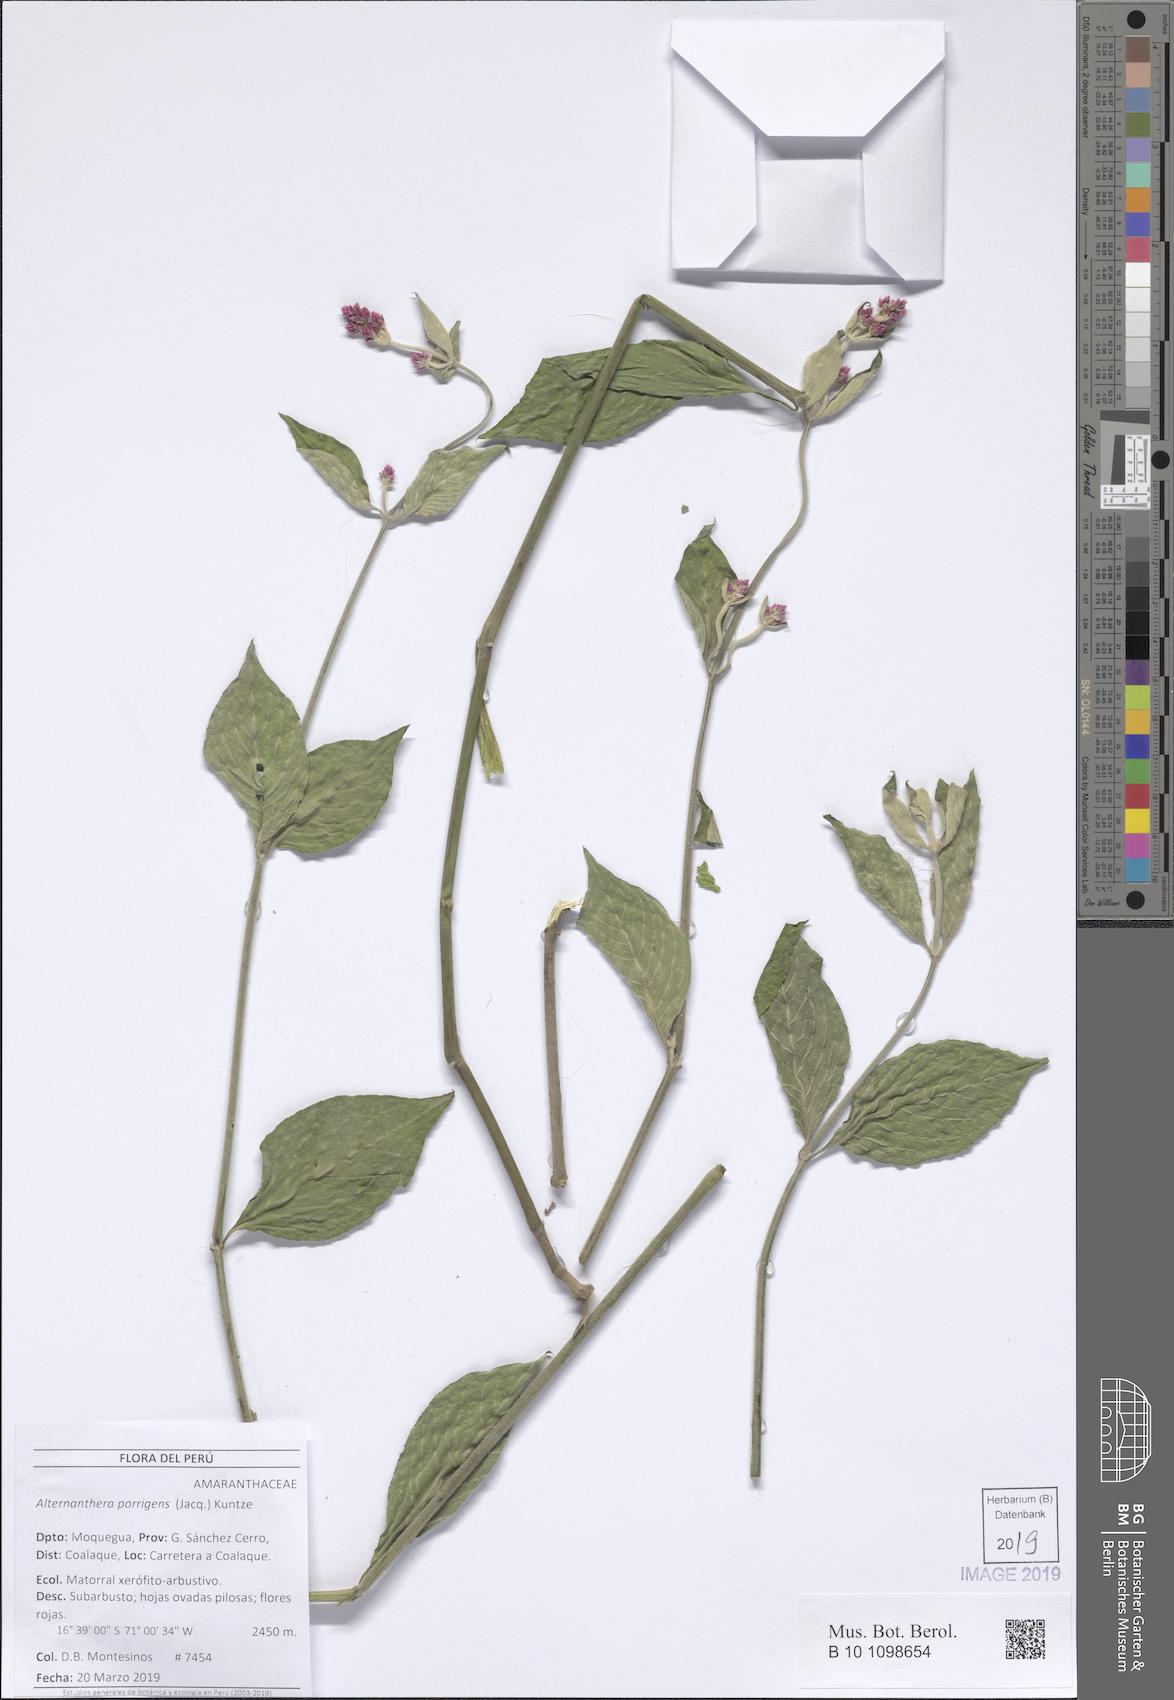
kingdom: Plantae
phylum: Tracheophyta
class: Magnoliopsida
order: Caryophyllales
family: Amaranthaceae
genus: Alternanthera
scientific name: Alternanthera porrigens
